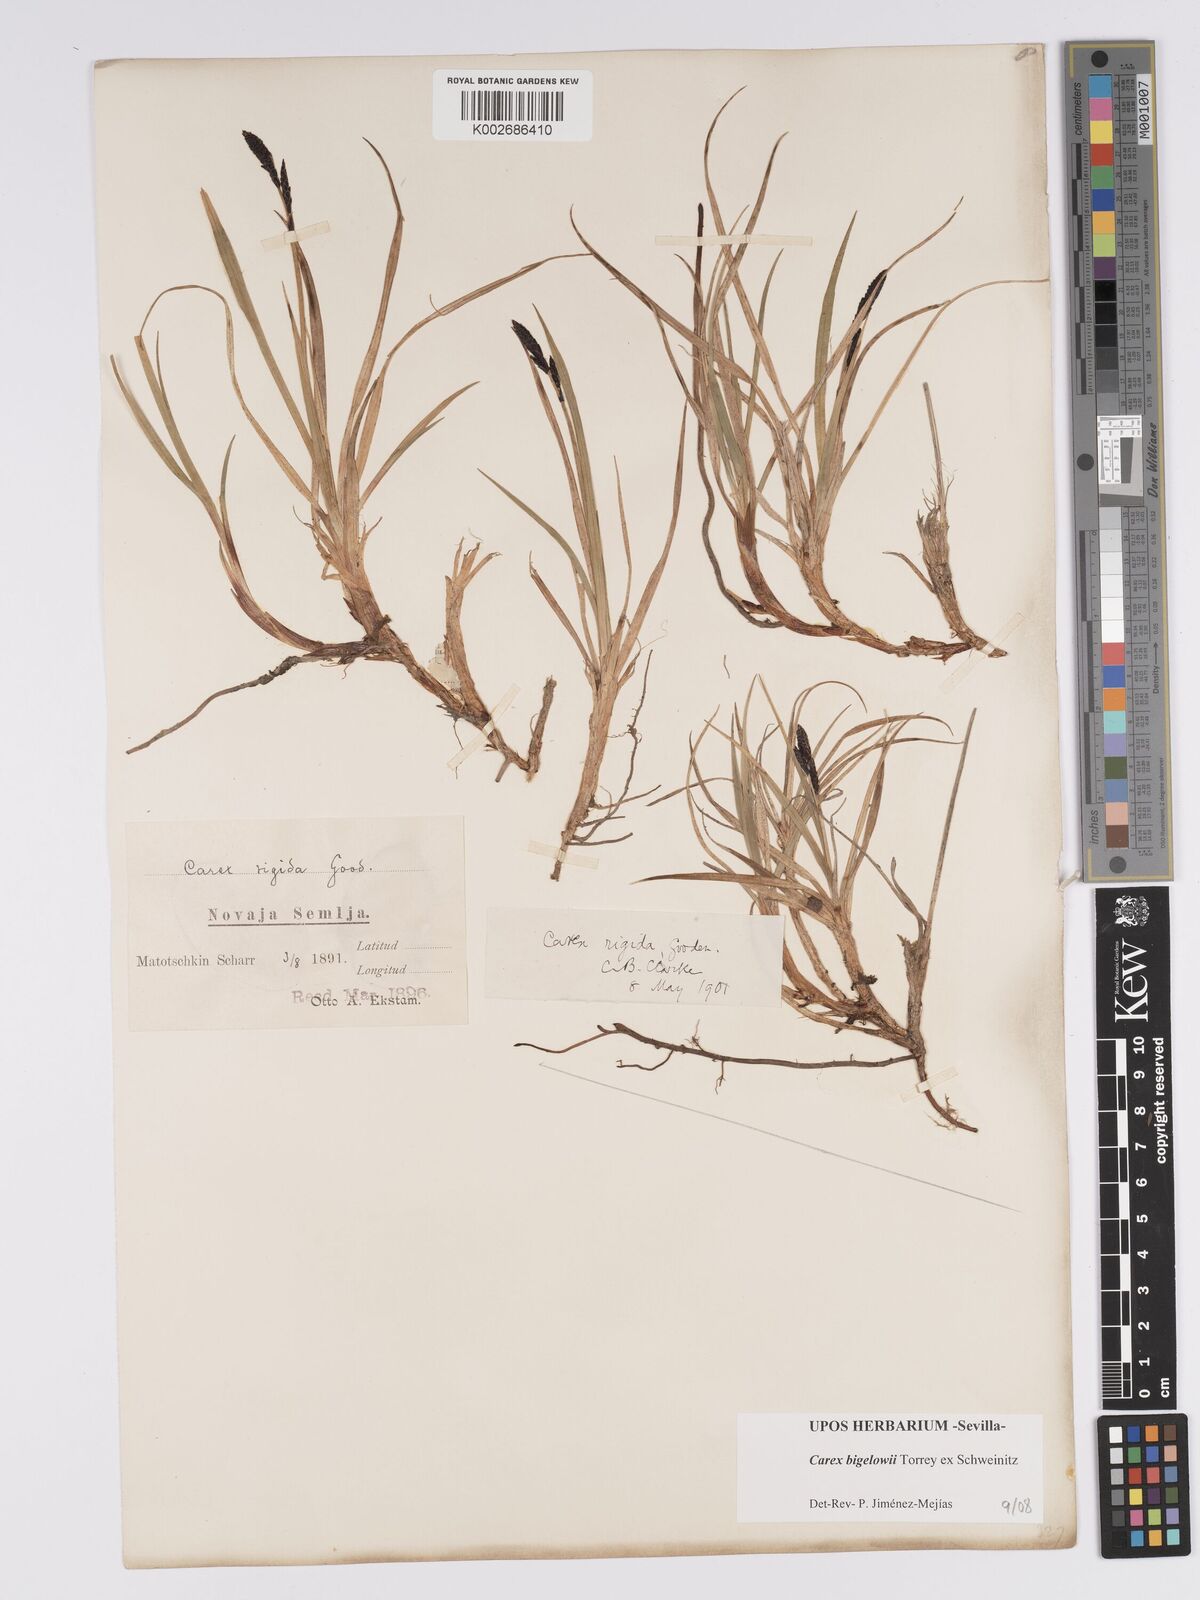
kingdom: Plantae
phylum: Tracheophyta
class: Liliopsida
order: Poales
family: Cyperaceae
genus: Carex
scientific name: Carex bigelowii
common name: Stiff sedge
